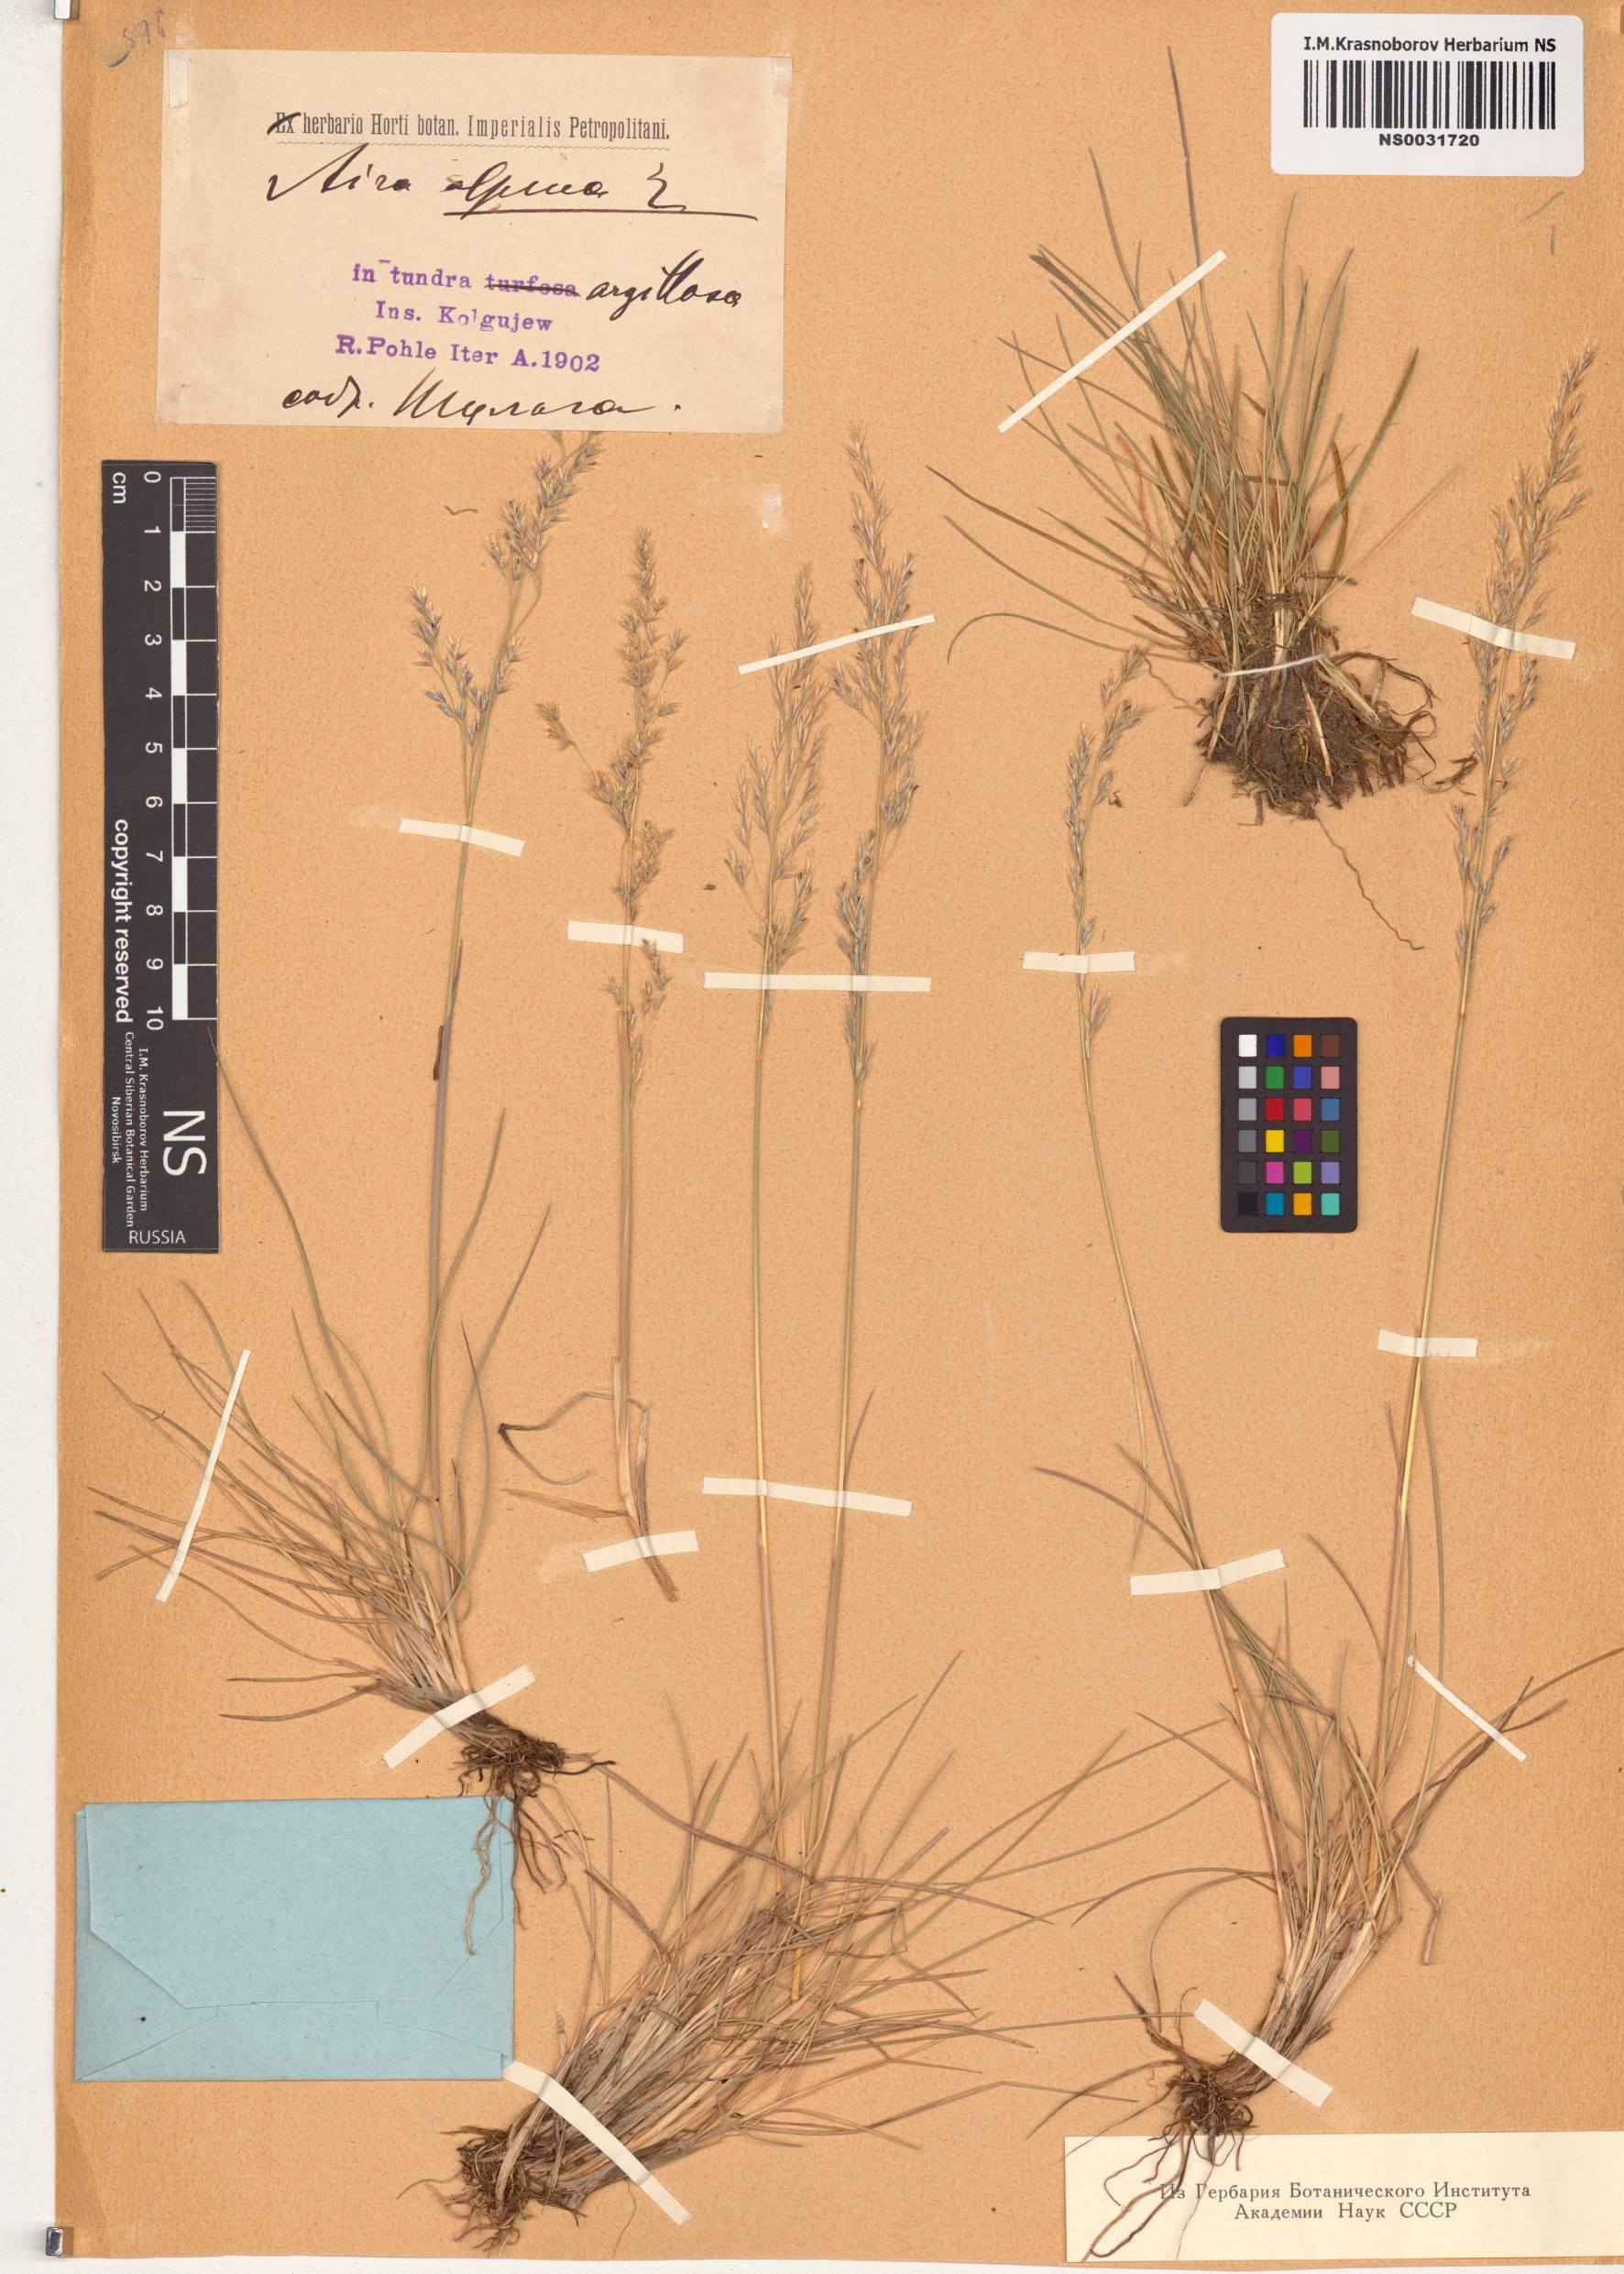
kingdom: Plantae
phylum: Tracheophyta
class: Liliopsida
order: Poales
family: Poaceae
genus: Deschampsia
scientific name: Deschampsia cespitosa
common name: Tufted hair-grass
